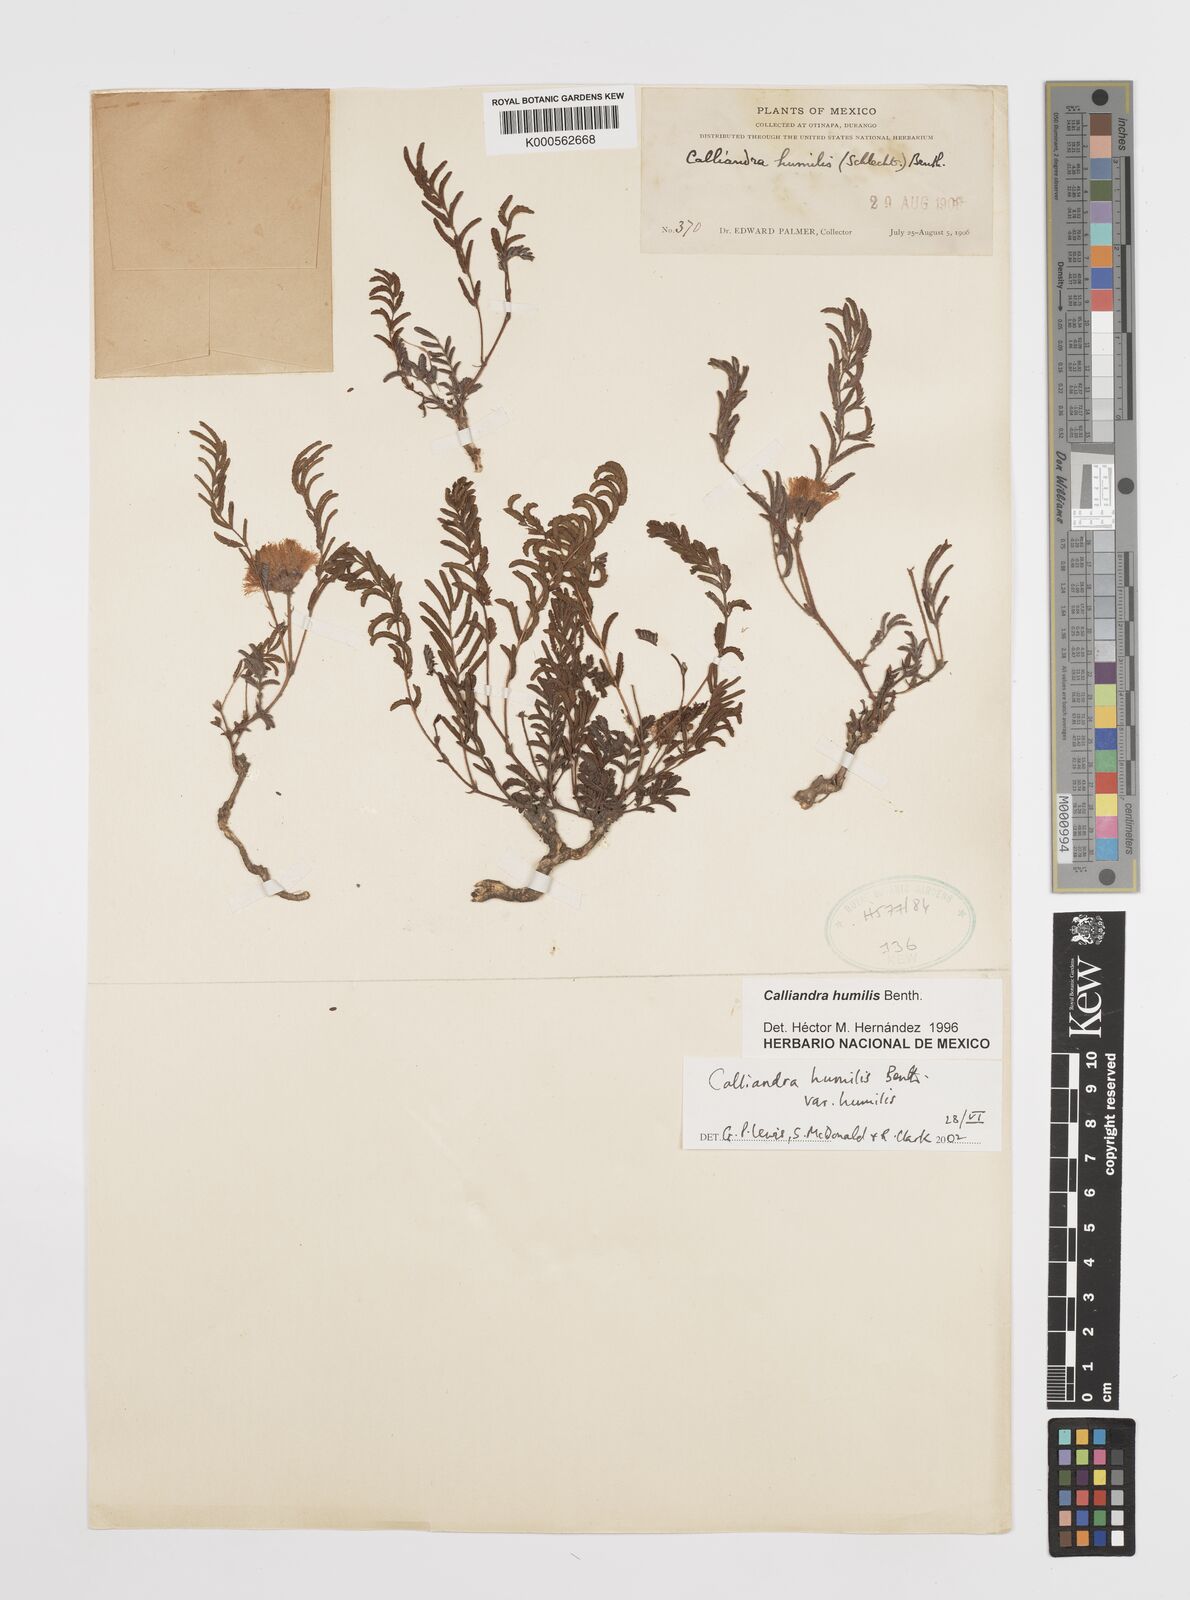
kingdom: Plantae
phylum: Tracheophyta
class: Magnoliopsida
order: Fabales
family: Fabaceae
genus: Calliandra
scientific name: Calliandra humilis
